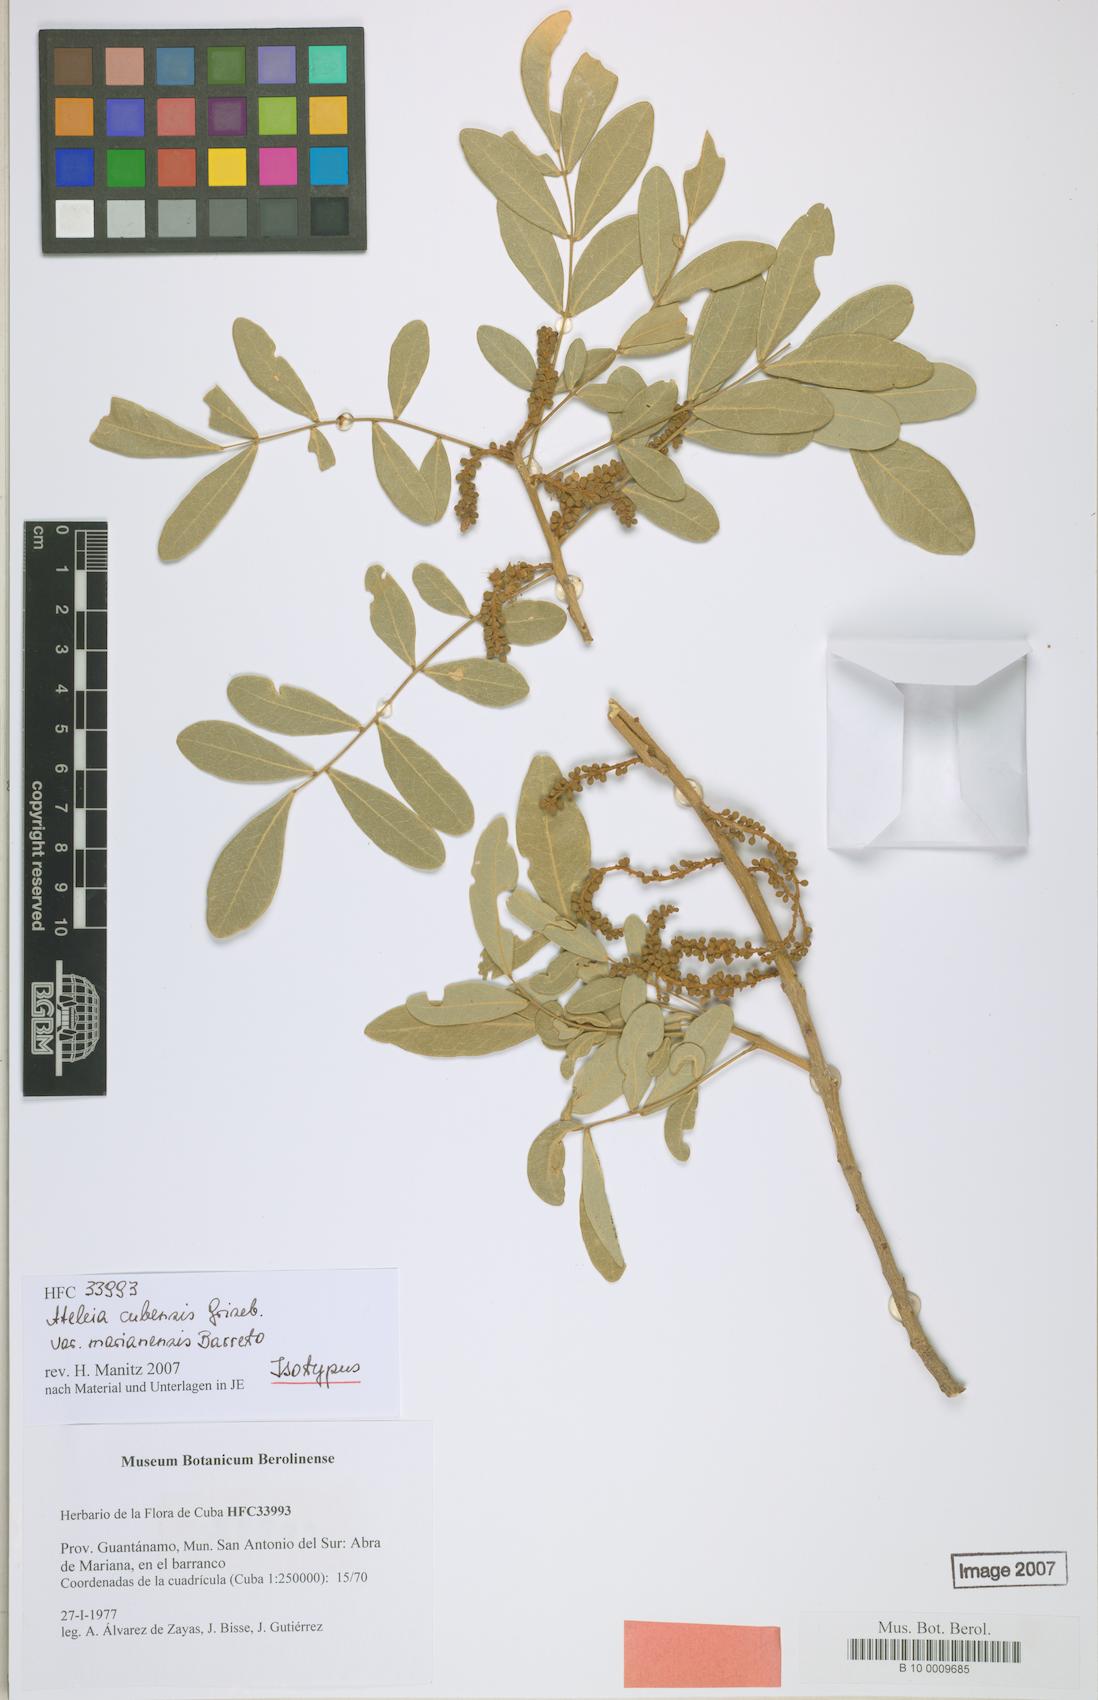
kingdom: Plantae
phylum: Tracheophyta
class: Magnoliopsida
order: Fabales
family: Fabaceae
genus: Ateleia
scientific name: Ateleia cubensis
